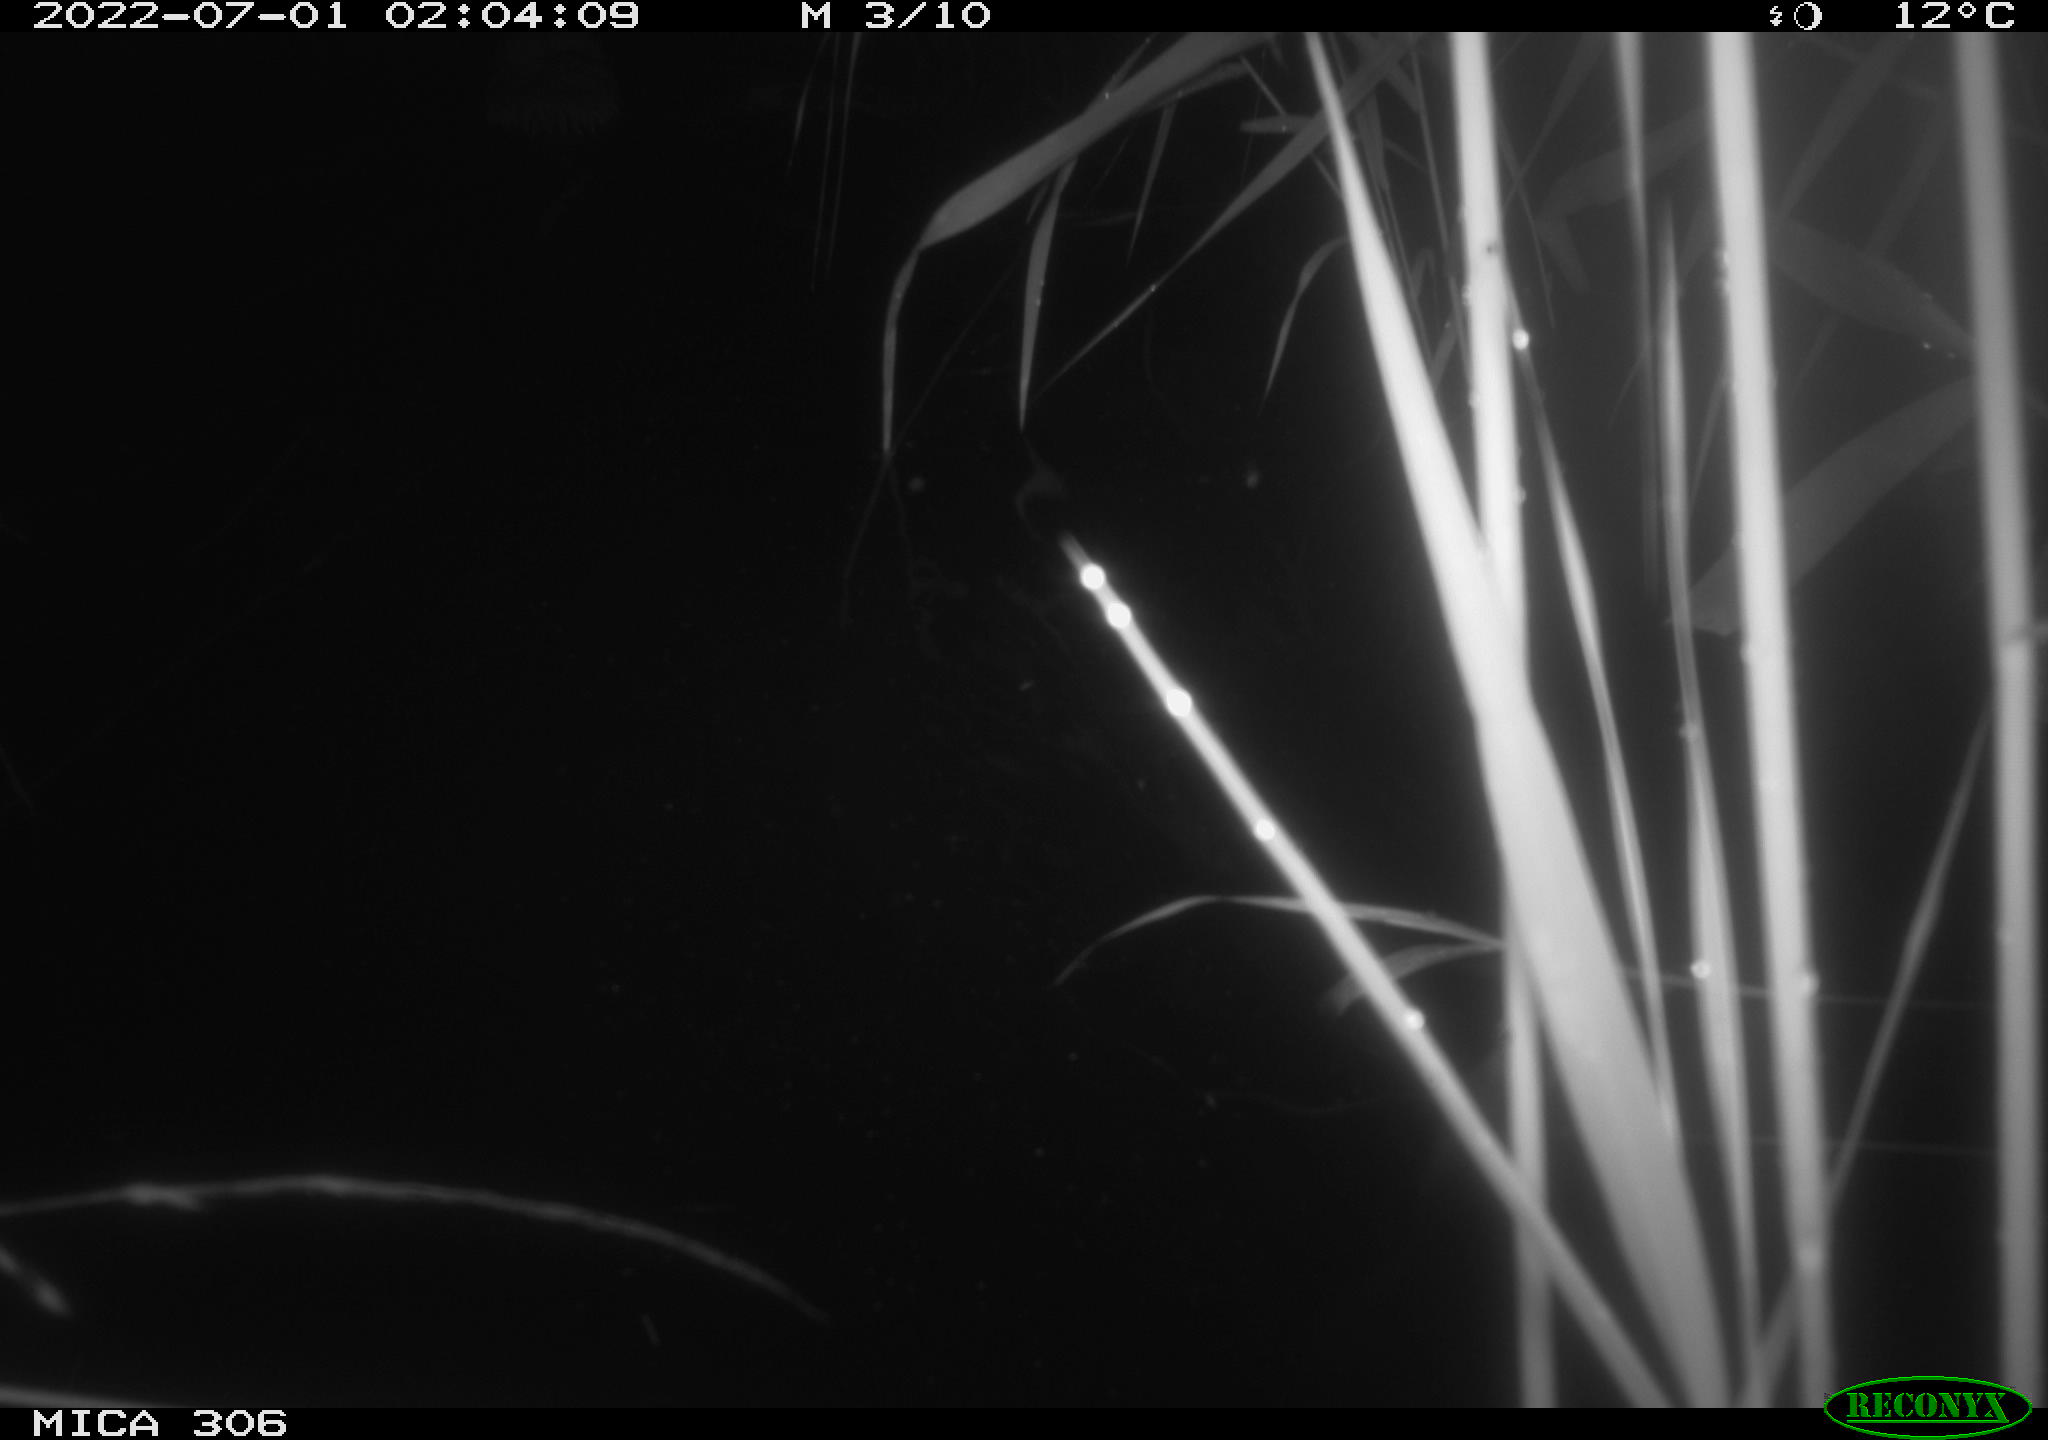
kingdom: Animalia
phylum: Chordata
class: Mammalia
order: Rodentia
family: Cricetidae
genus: Ondatra
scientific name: Ondatra zibethicus
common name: Muskrat
